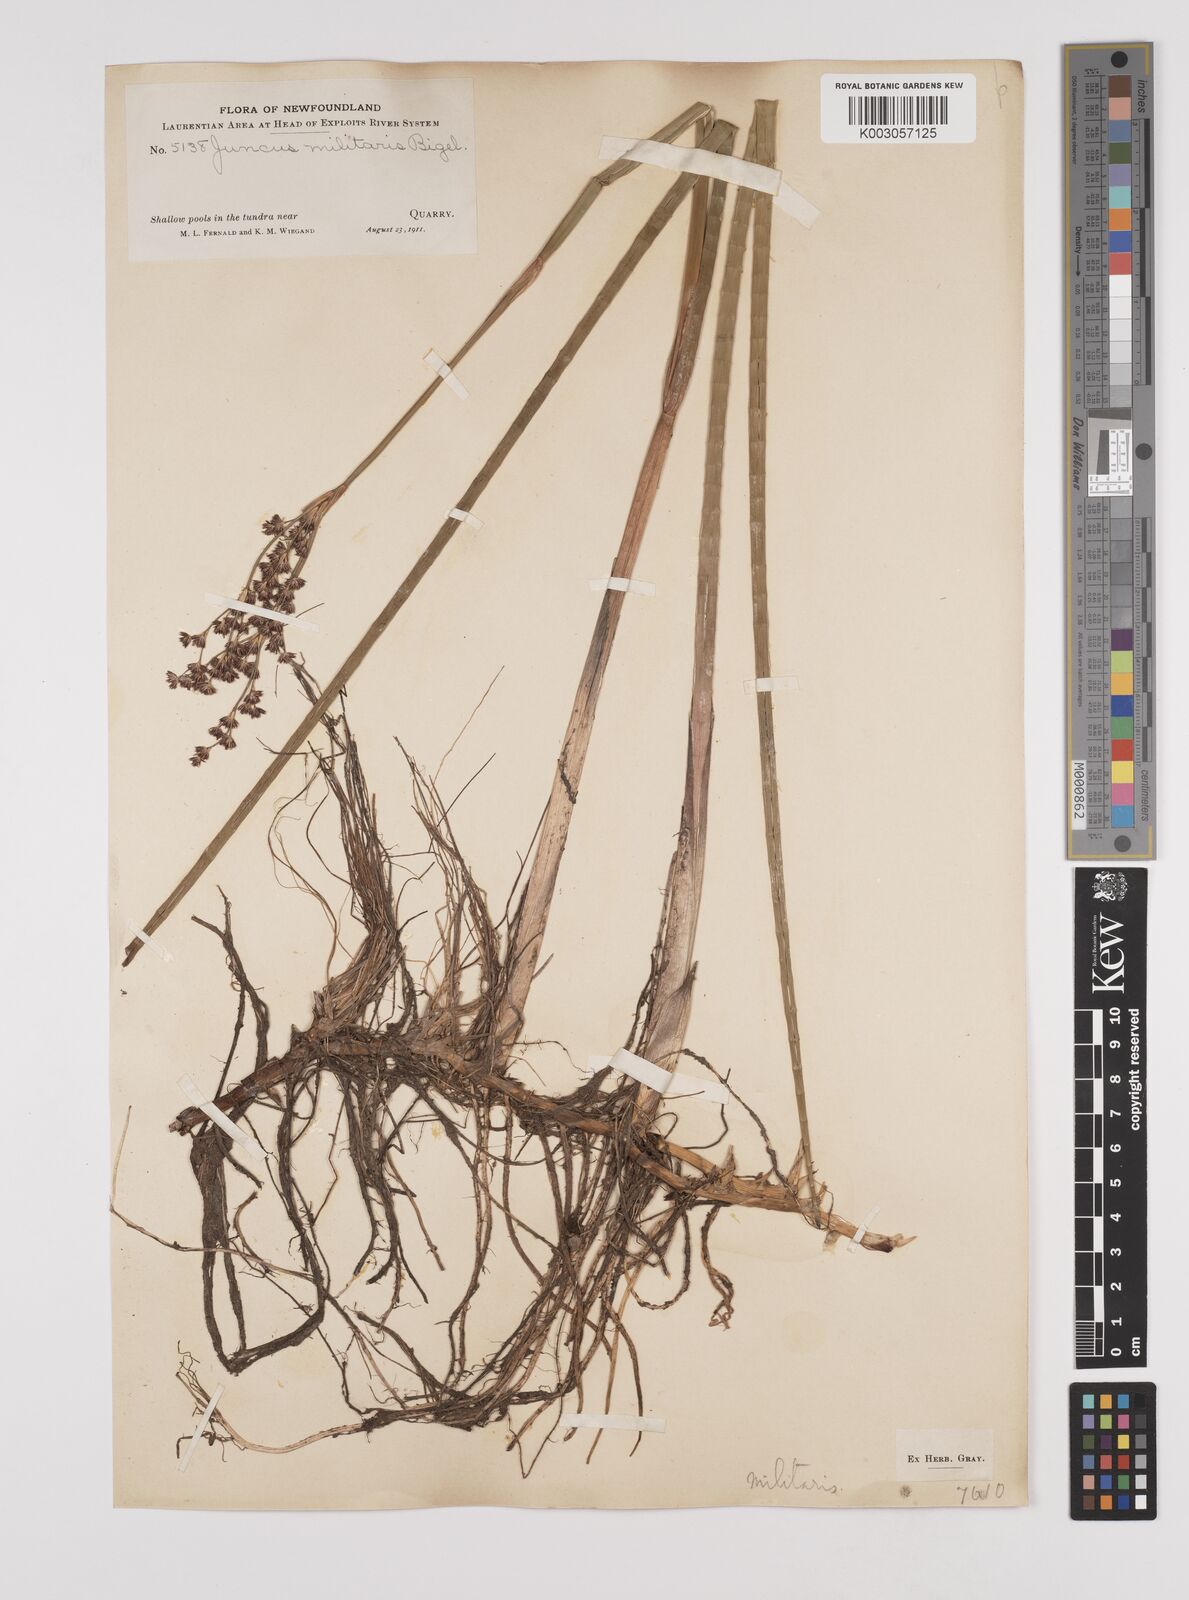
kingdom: Plantae
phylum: Tracheophyta
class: Liliopsida
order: Poales
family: Juncaceae
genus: Juncus
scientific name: Juncus militaris
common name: Bayonet rush
